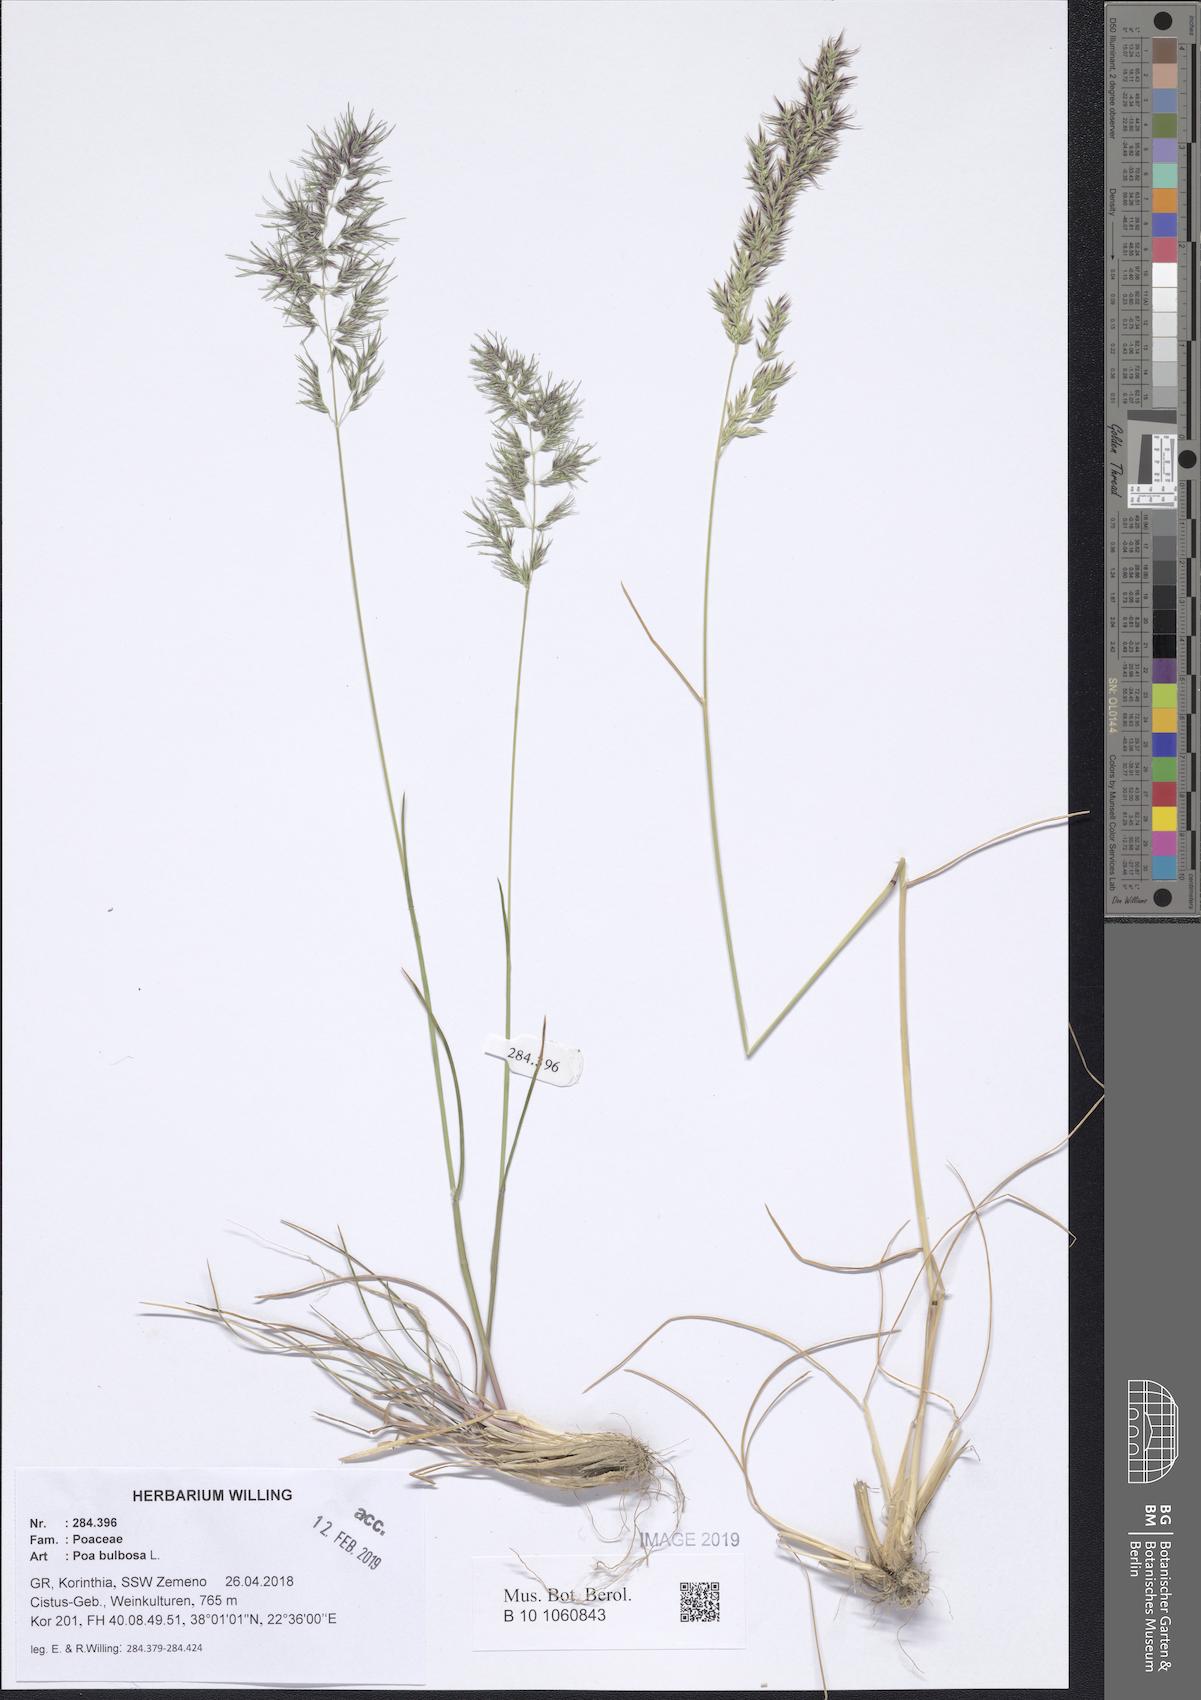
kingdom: Plantae
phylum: Tracheophyta
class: Liliopsida
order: Poales
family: Poaceae
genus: Poa
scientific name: Poa bulbosa
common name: Bulbous bluegrass
